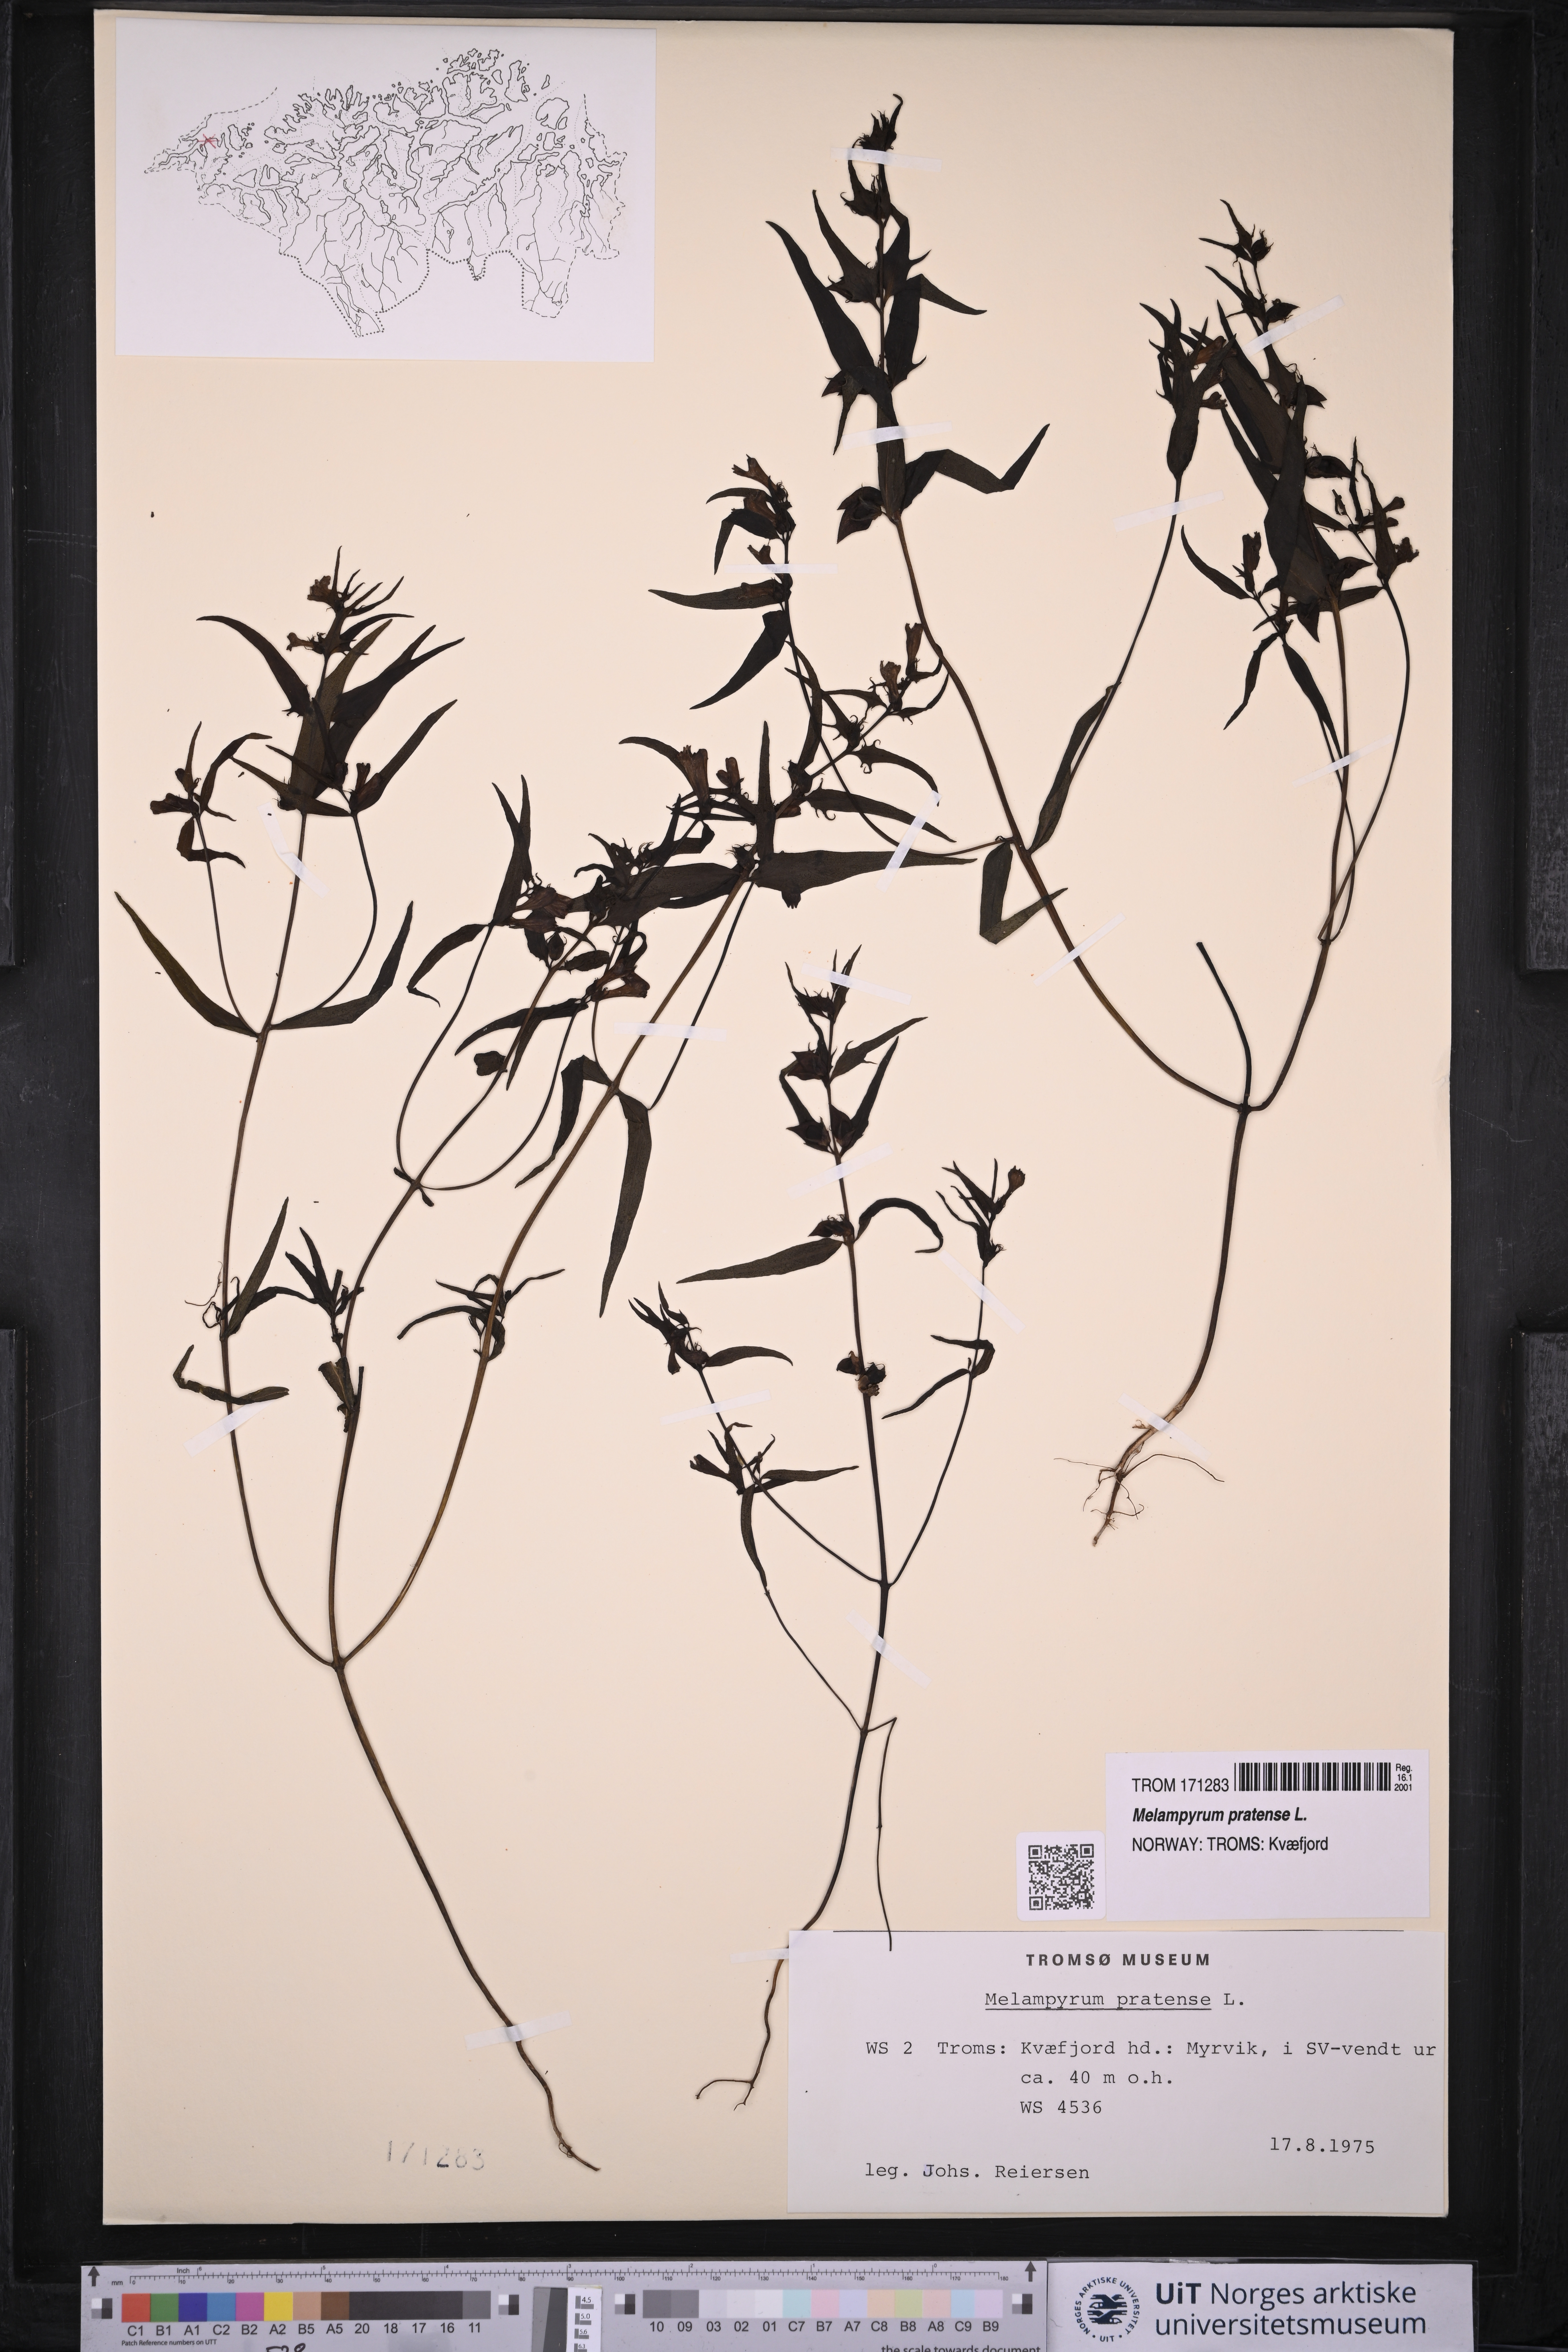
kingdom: Plantae
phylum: Tracheophyta
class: Magnoliopsida
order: Lamiales
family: Orobanchaceae
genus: Melampyrum
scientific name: Melampyrum pratense
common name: Common cow-wheat
